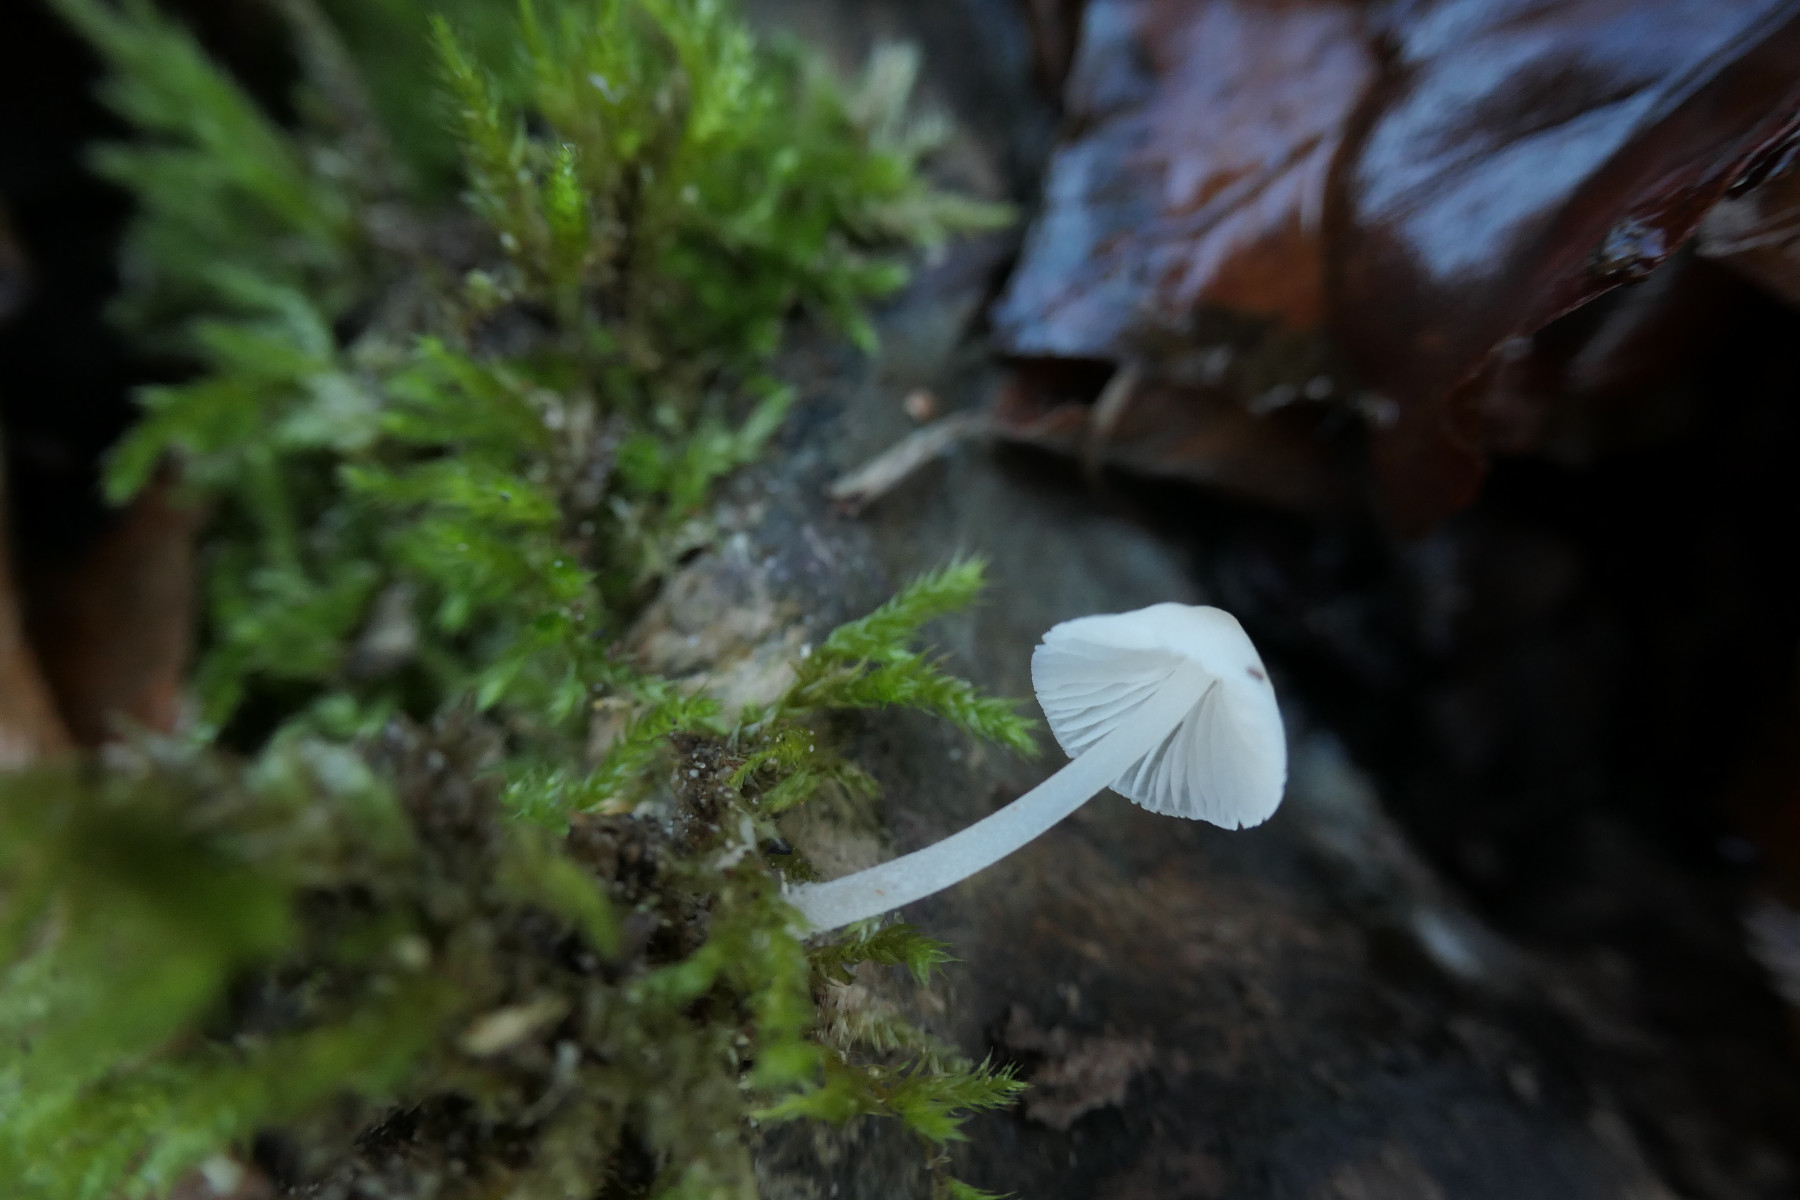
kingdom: Fungi
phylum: Basidiomycota
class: Agaricomycetes
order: Agaricales
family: Porotheleaceae
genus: Phloeomana
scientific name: Phloeomana minutula
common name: bleg huesvamp
